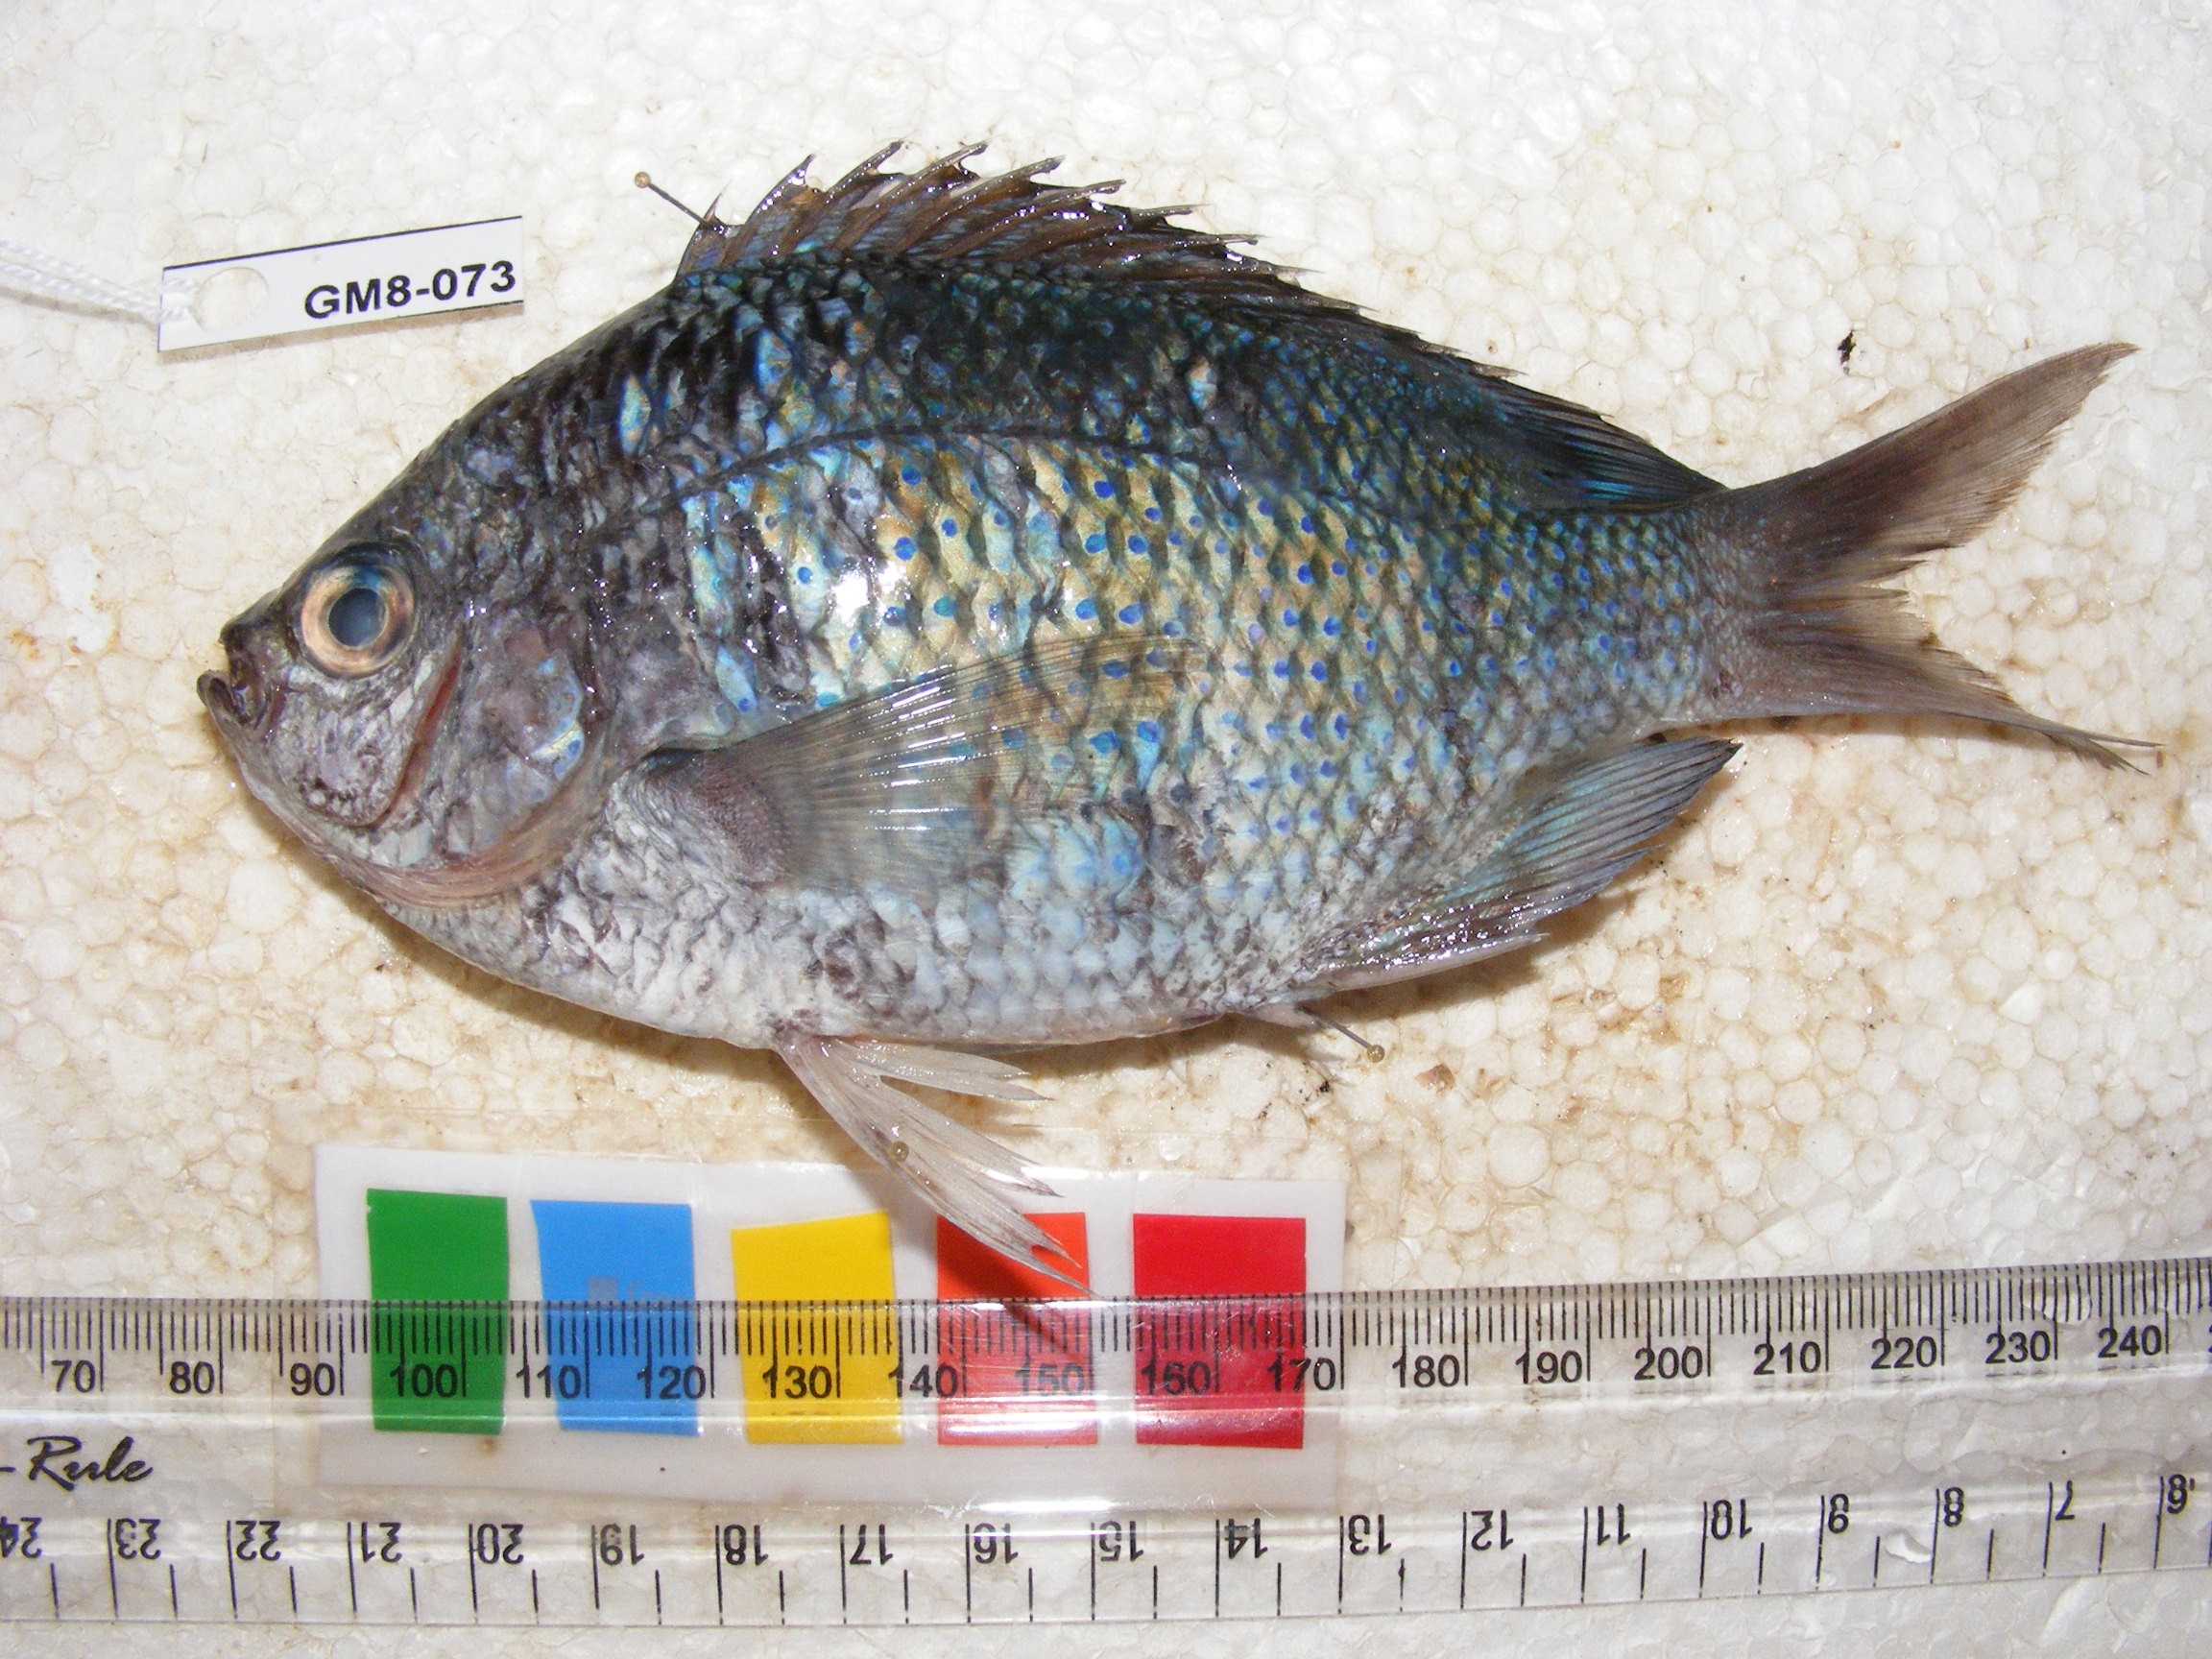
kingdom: Animalia
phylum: Chordata
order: Perciformes
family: Pomacentridae
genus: Abudefduf
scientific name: Abudefduf
